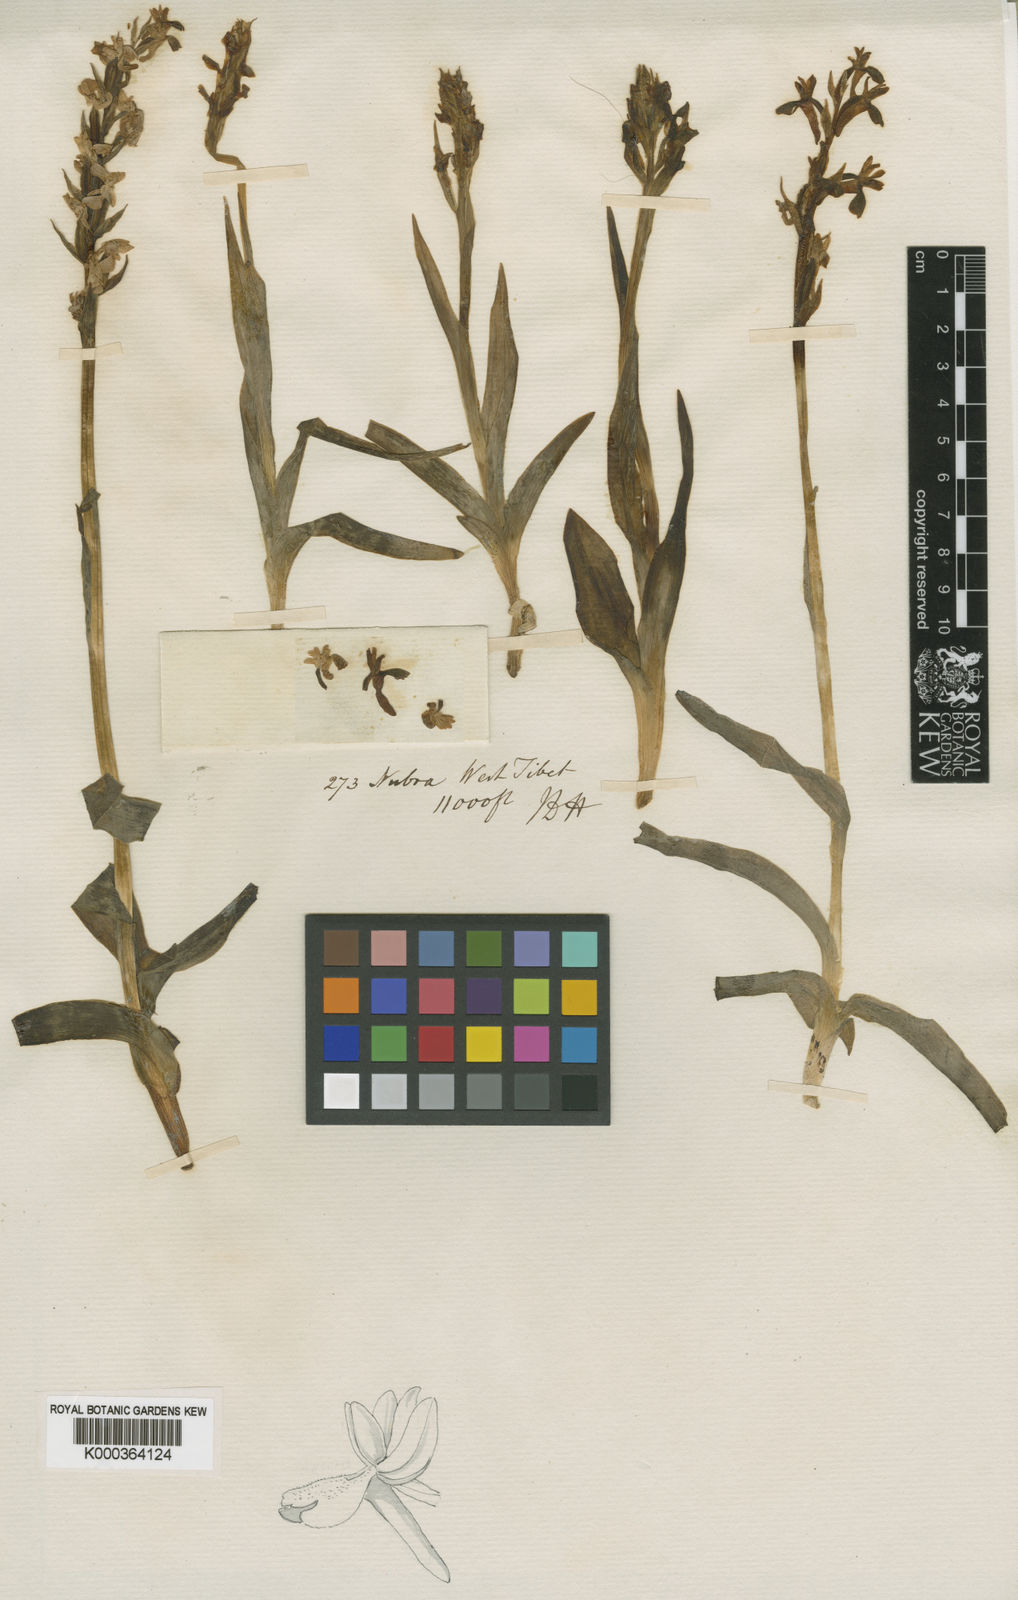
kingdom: Plantae
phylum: Tracheophyta
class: Liliopsida
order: Asparagales
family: Orchidaceae
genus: Orchis
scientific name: Orchis
